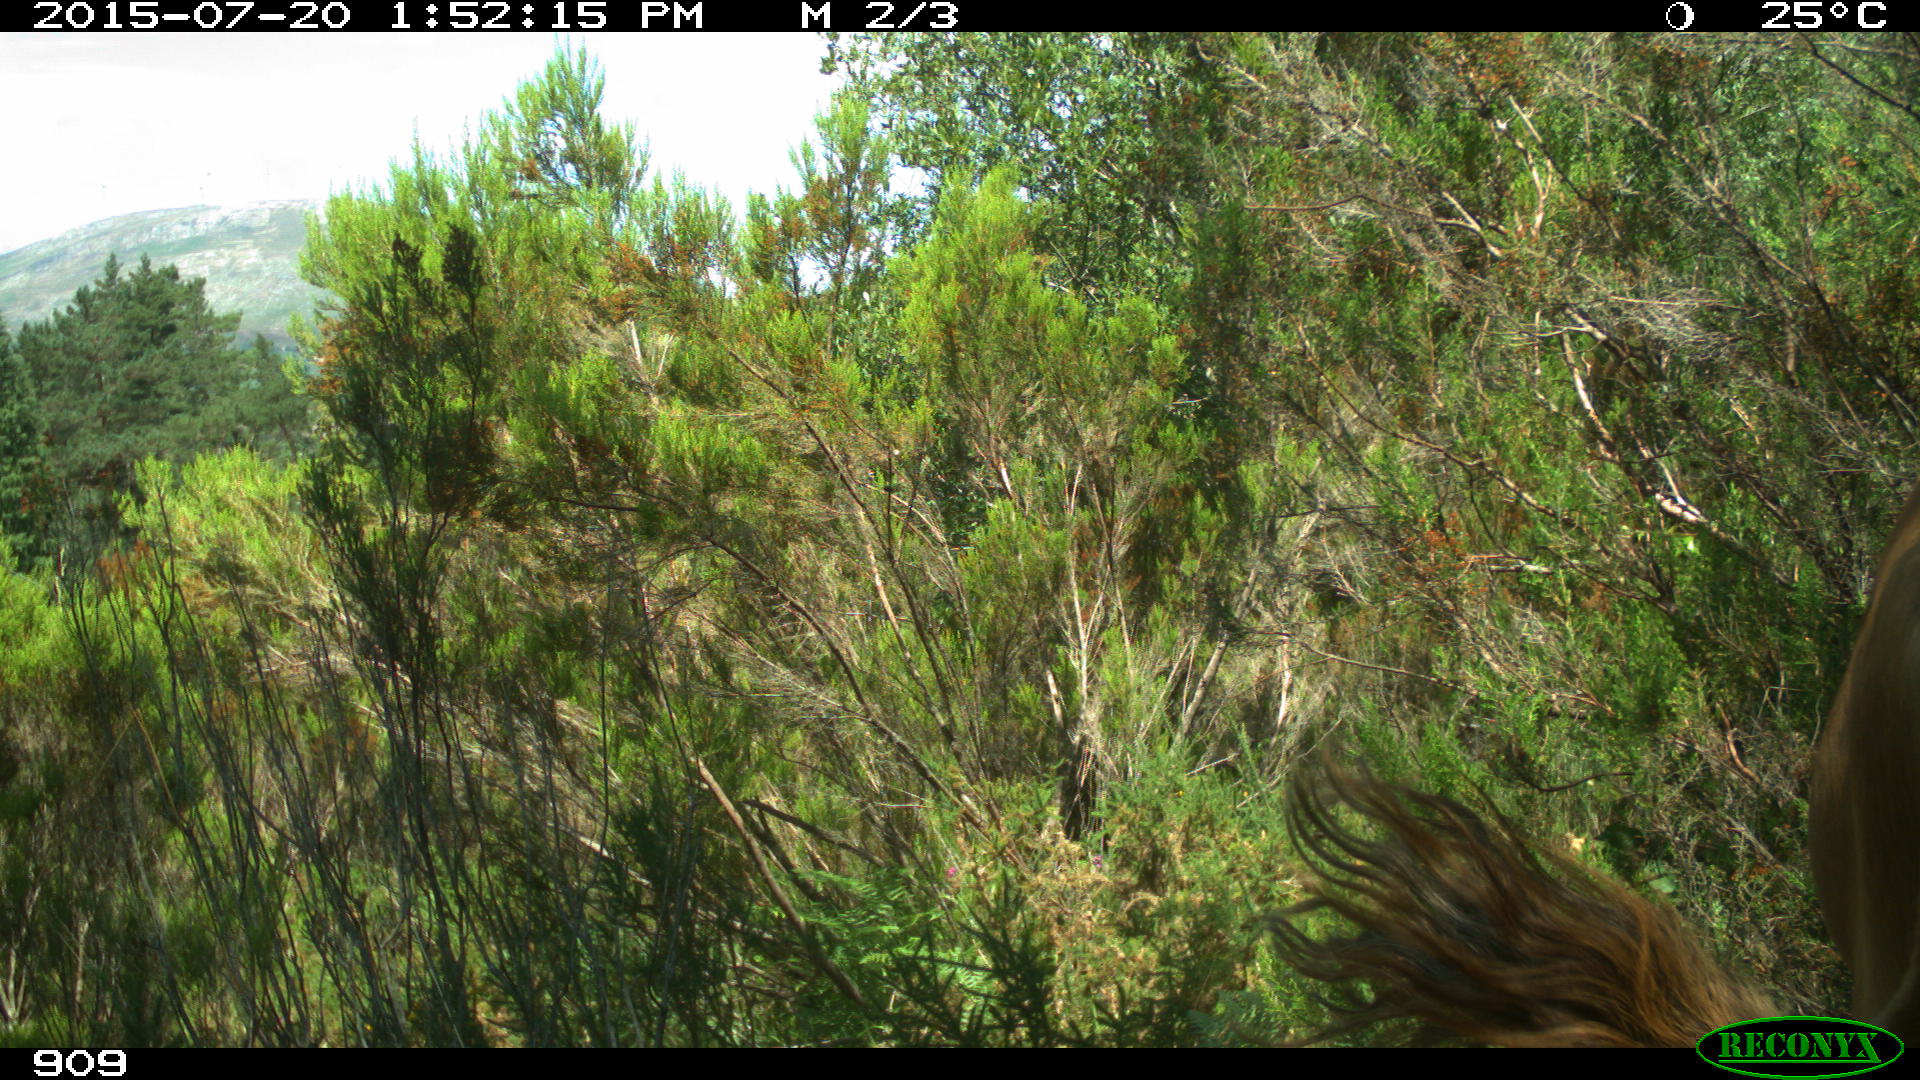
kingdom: Animalia
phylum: Chordata
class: Mammalia
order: Artiodactyla
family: Bovidae
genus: Bos
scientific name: Bos taurus
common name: Domesticated cattle
